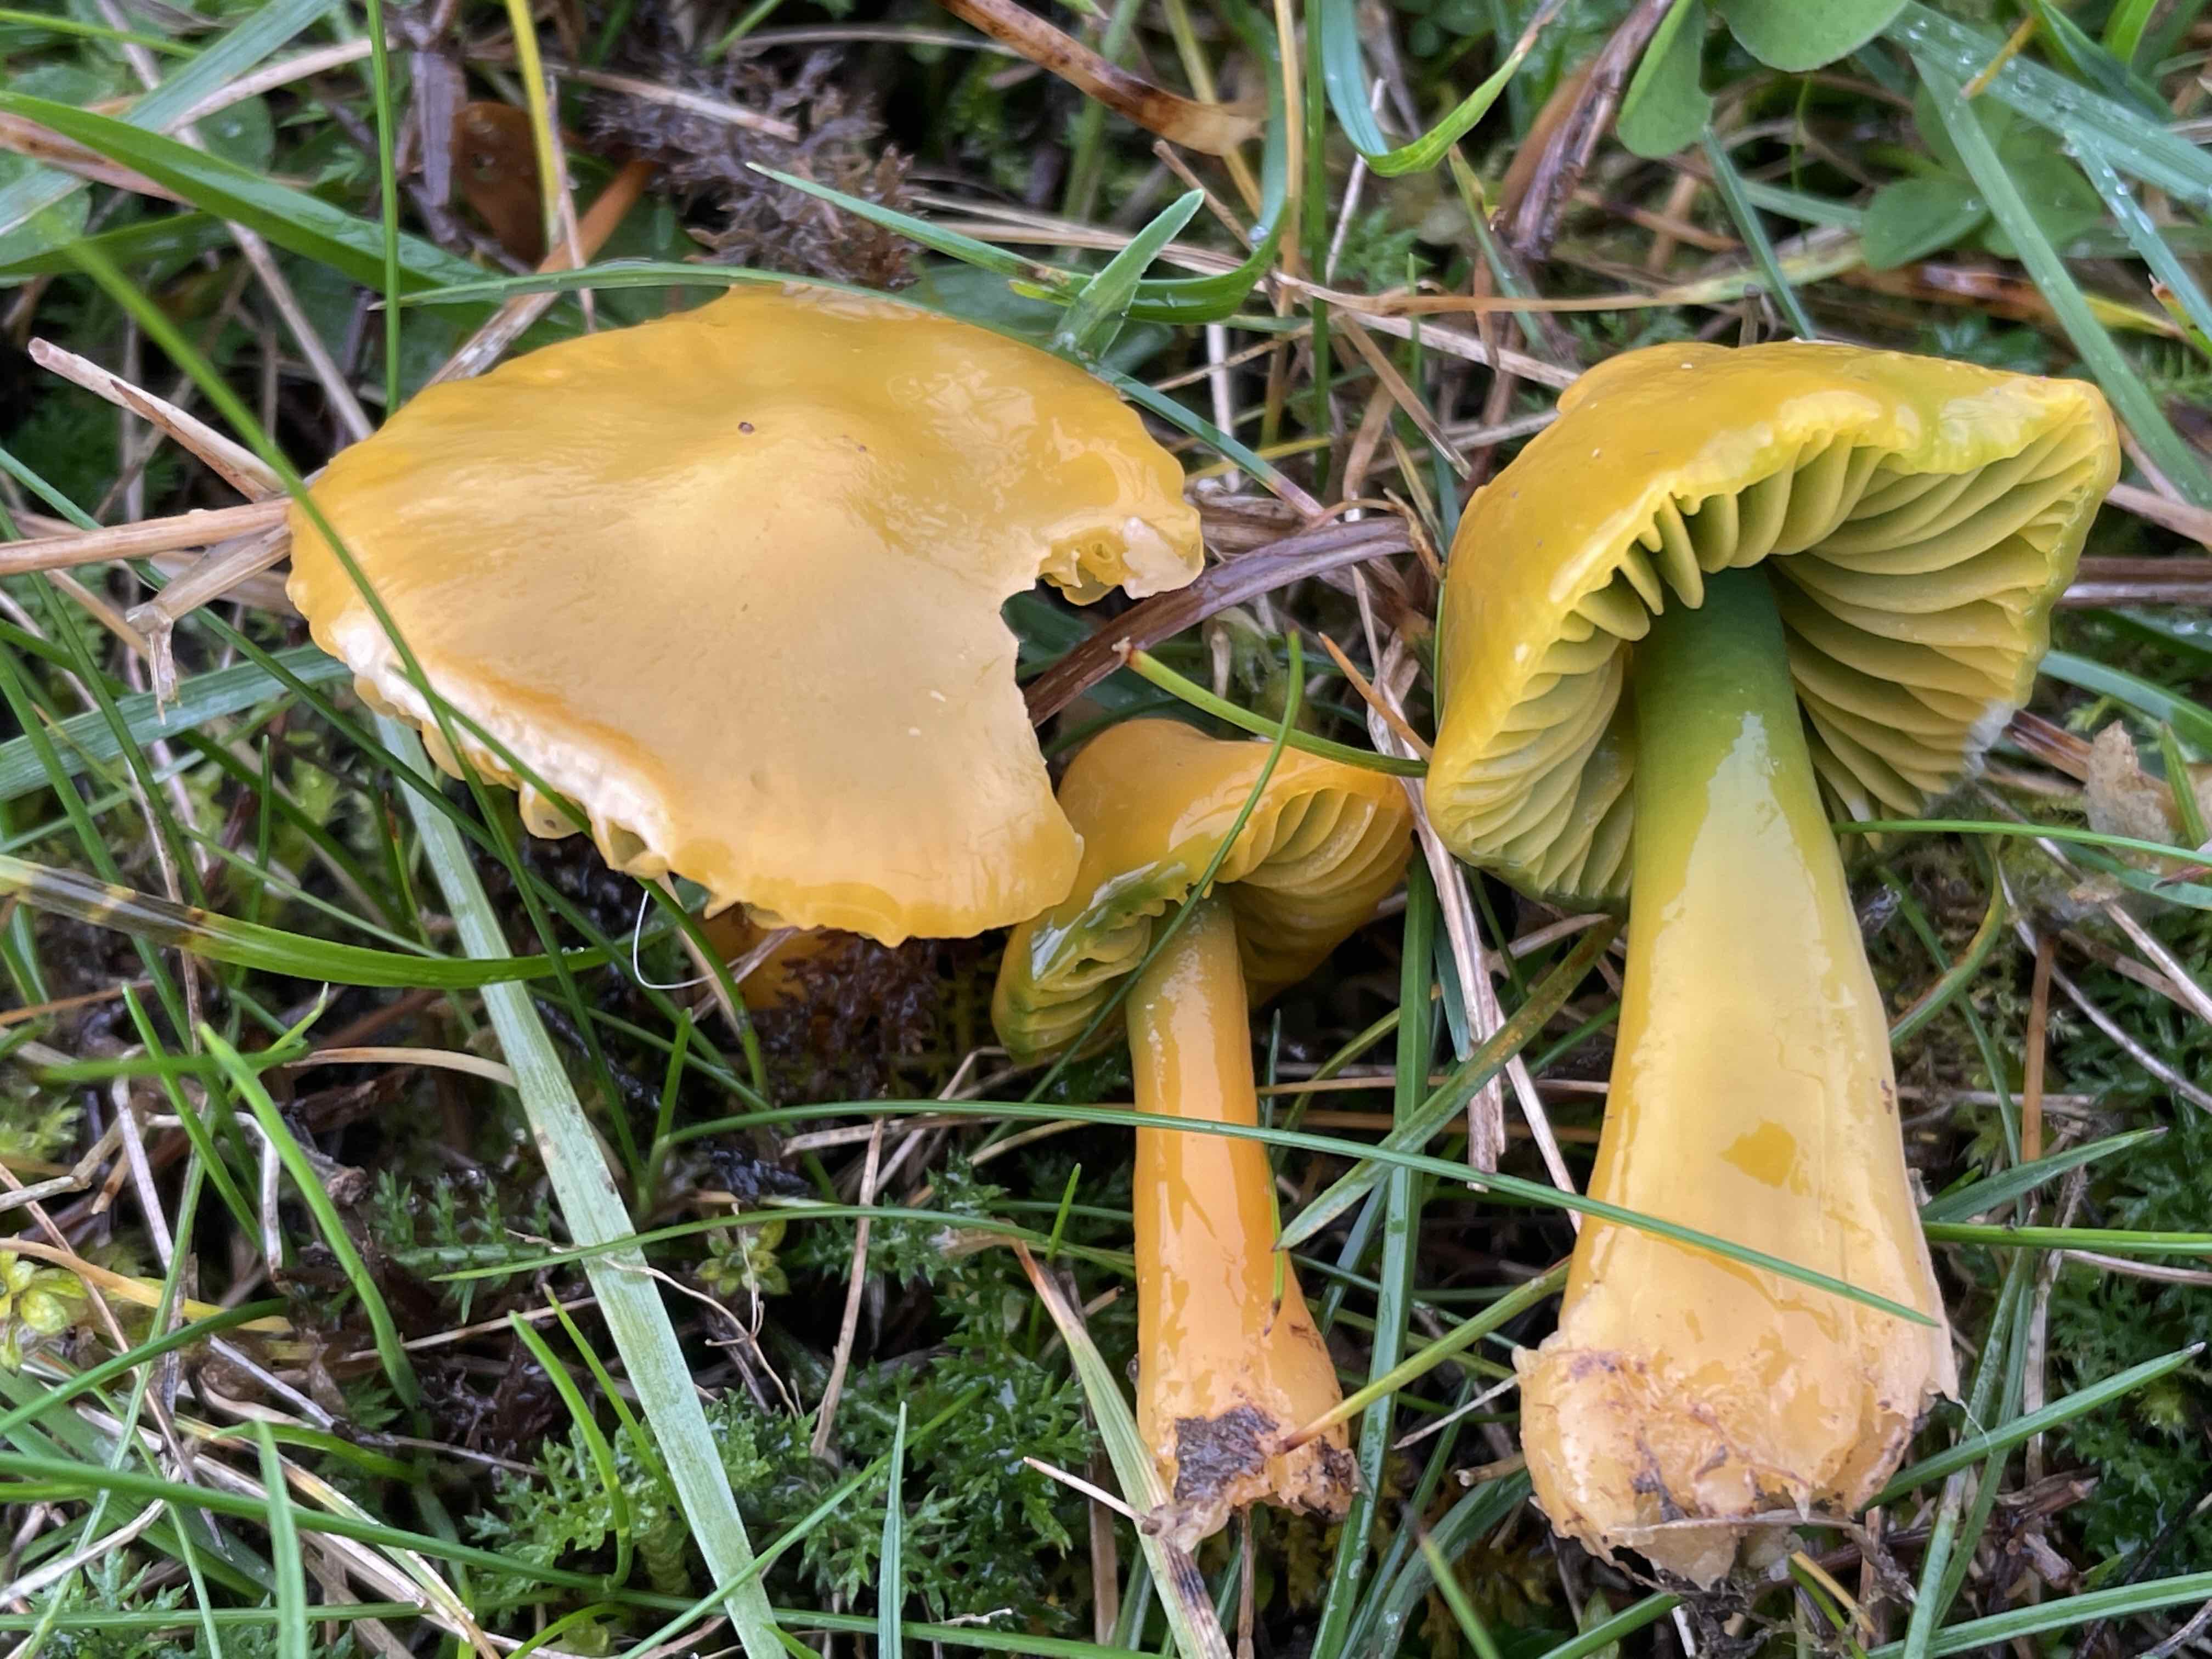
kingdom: Fungi
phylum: Basidiomycota
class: Agaricomycetes
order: Agaricales
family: Hygrophoraceae
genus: Gliophorus
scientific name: Gliophorus psittacinus
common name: papegøje-vokshat
